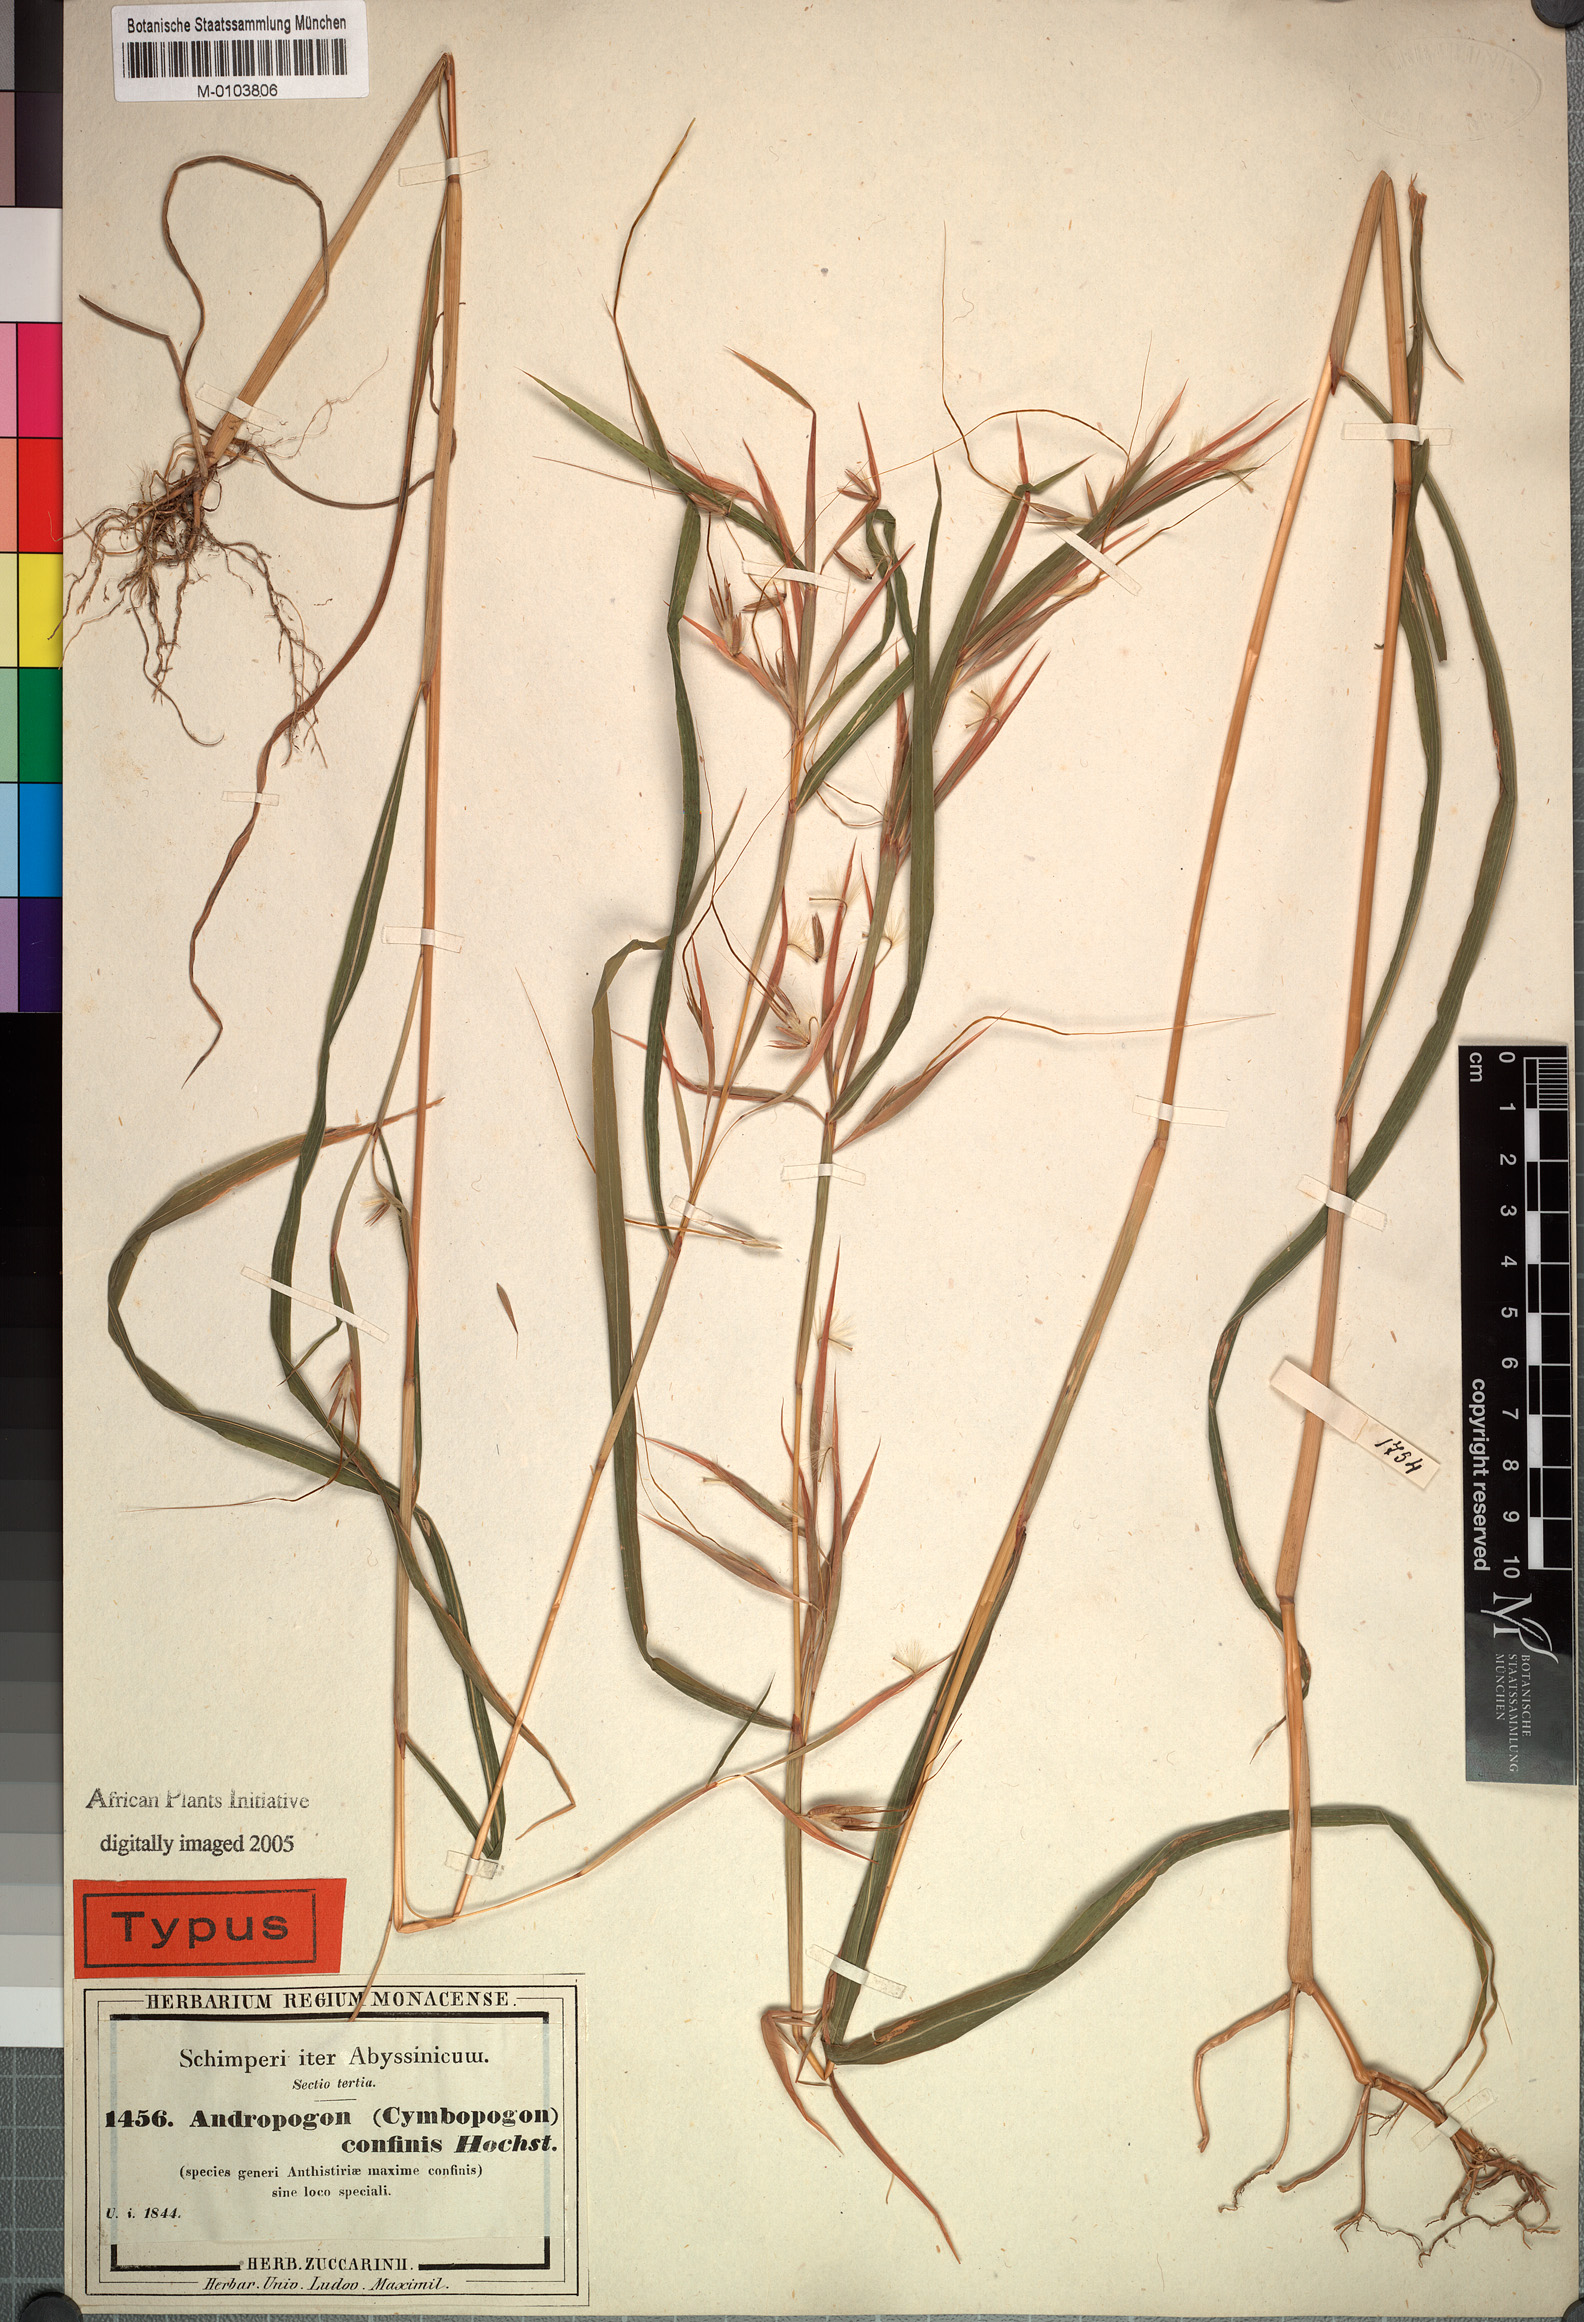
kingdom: Plantae
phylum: Tracheophyta
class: Liliopsida
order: Poales
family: Poaceae
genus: Hyparrhenia
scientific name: Hyparrhenia confinis
